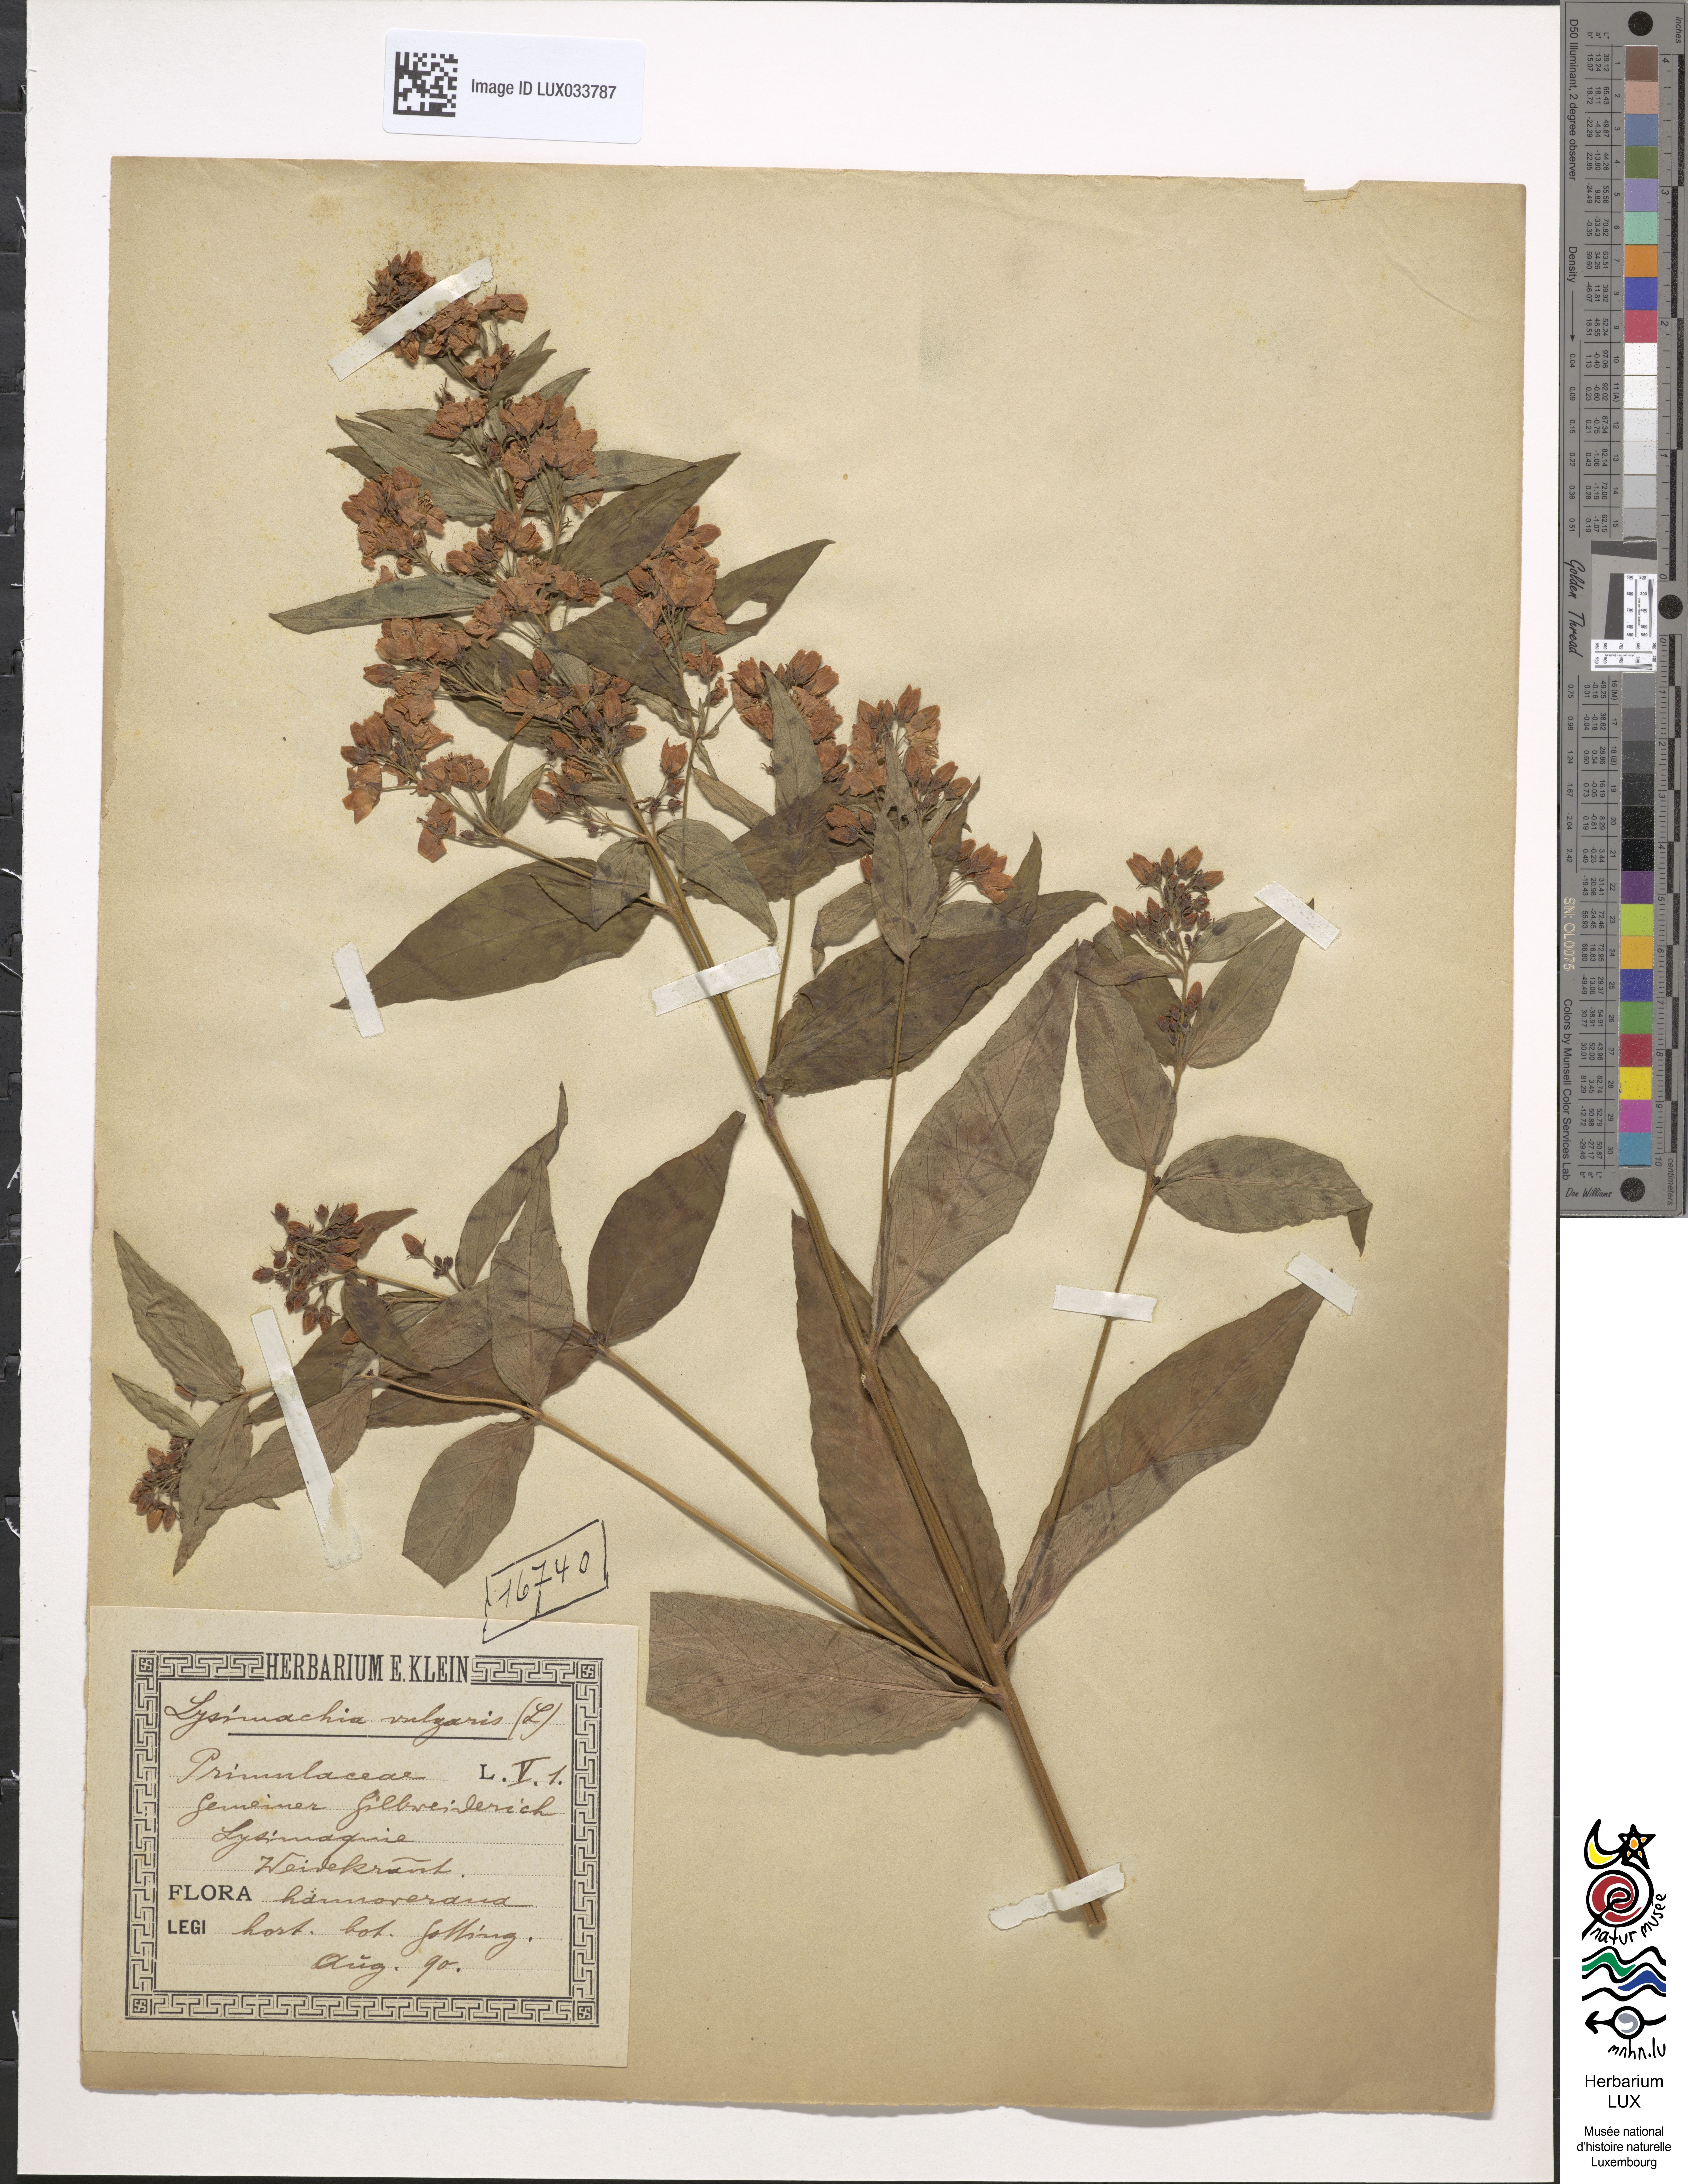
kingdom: Plantae
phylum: Tracheophyta
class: Magnoliopsida
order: Ericales
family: Primulaceae
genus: Lysimachia
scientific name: Lysimachia vulgaris
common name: Yellow loosestrife
